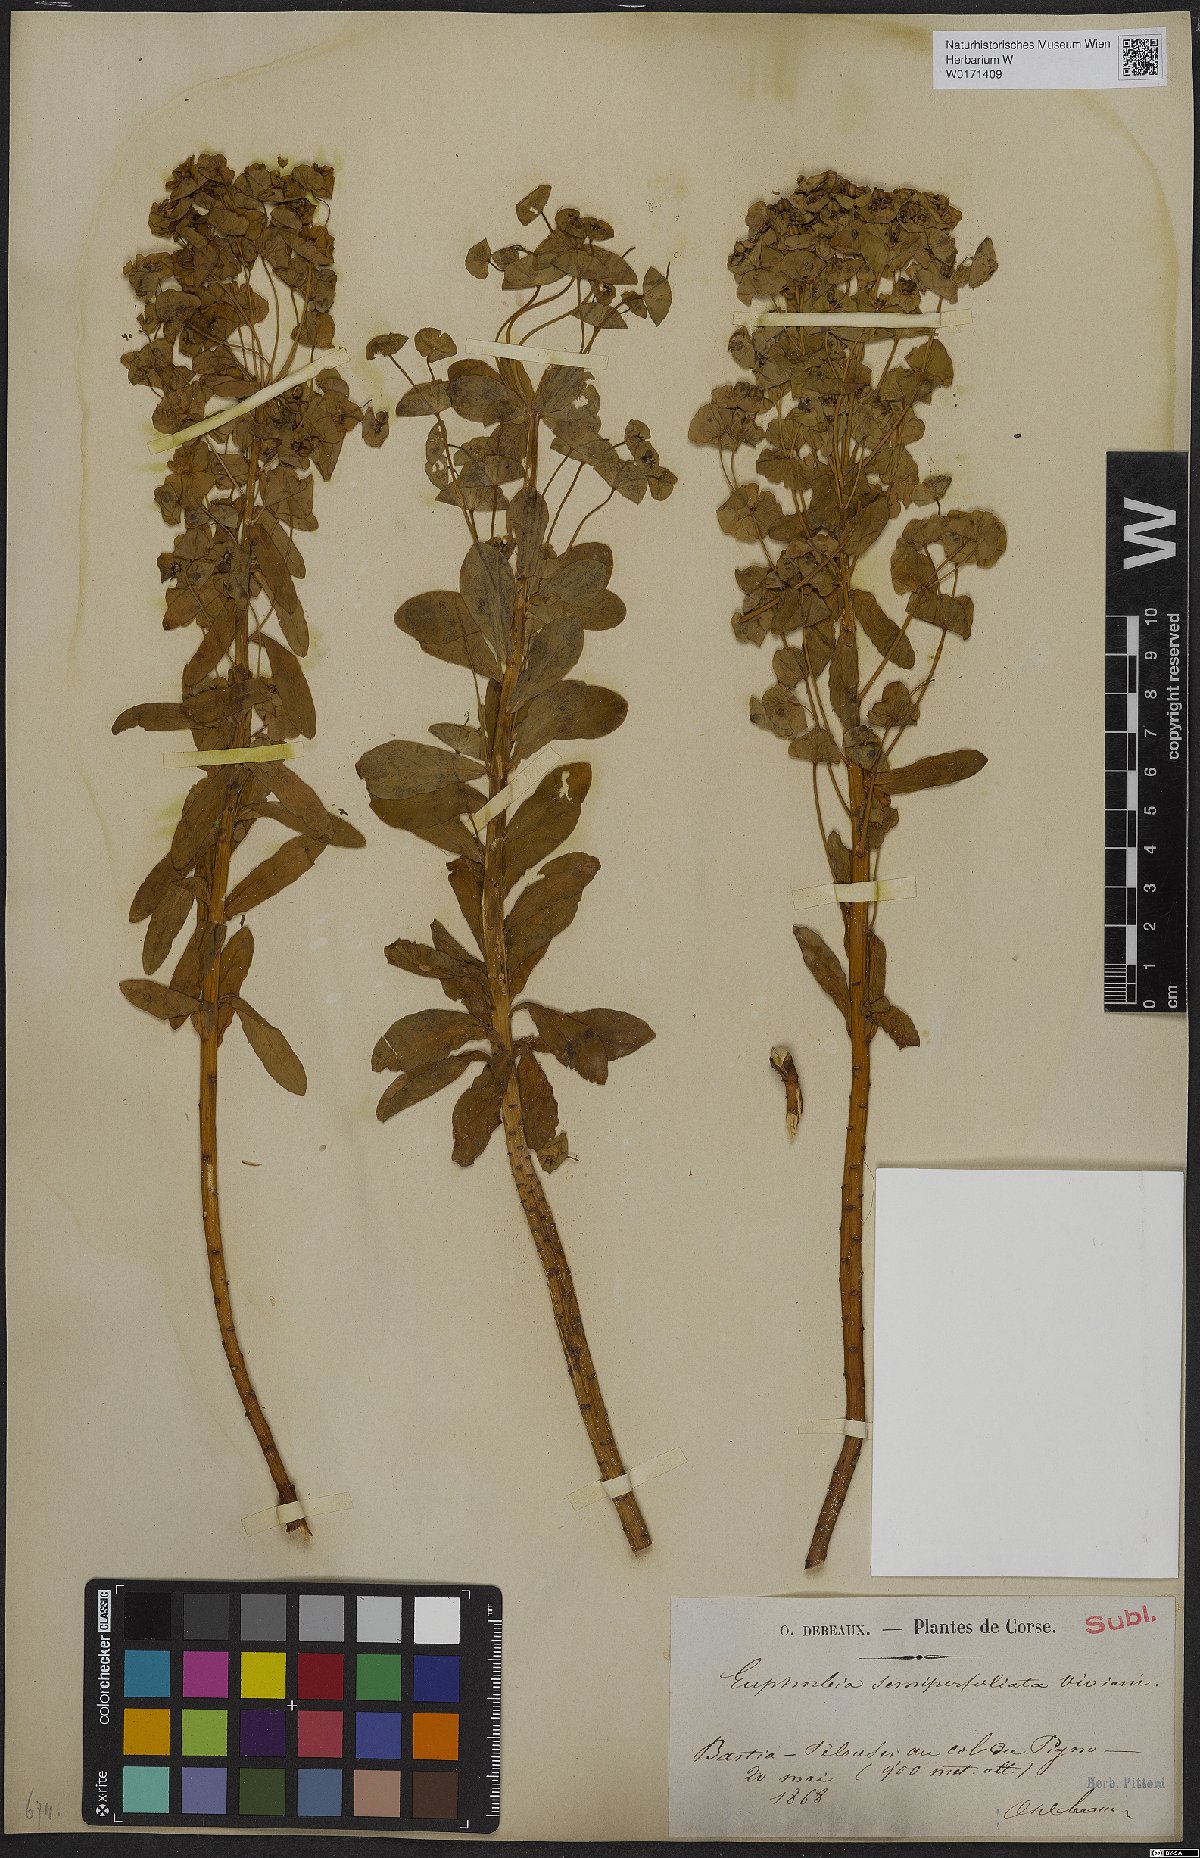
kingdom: Plantae
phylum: Tracheophyta
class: Magnoliopsida
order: Malpighiales
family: Euphorbiaceae
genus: Euphorbia
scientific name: Euphorbia semiperfoliata
